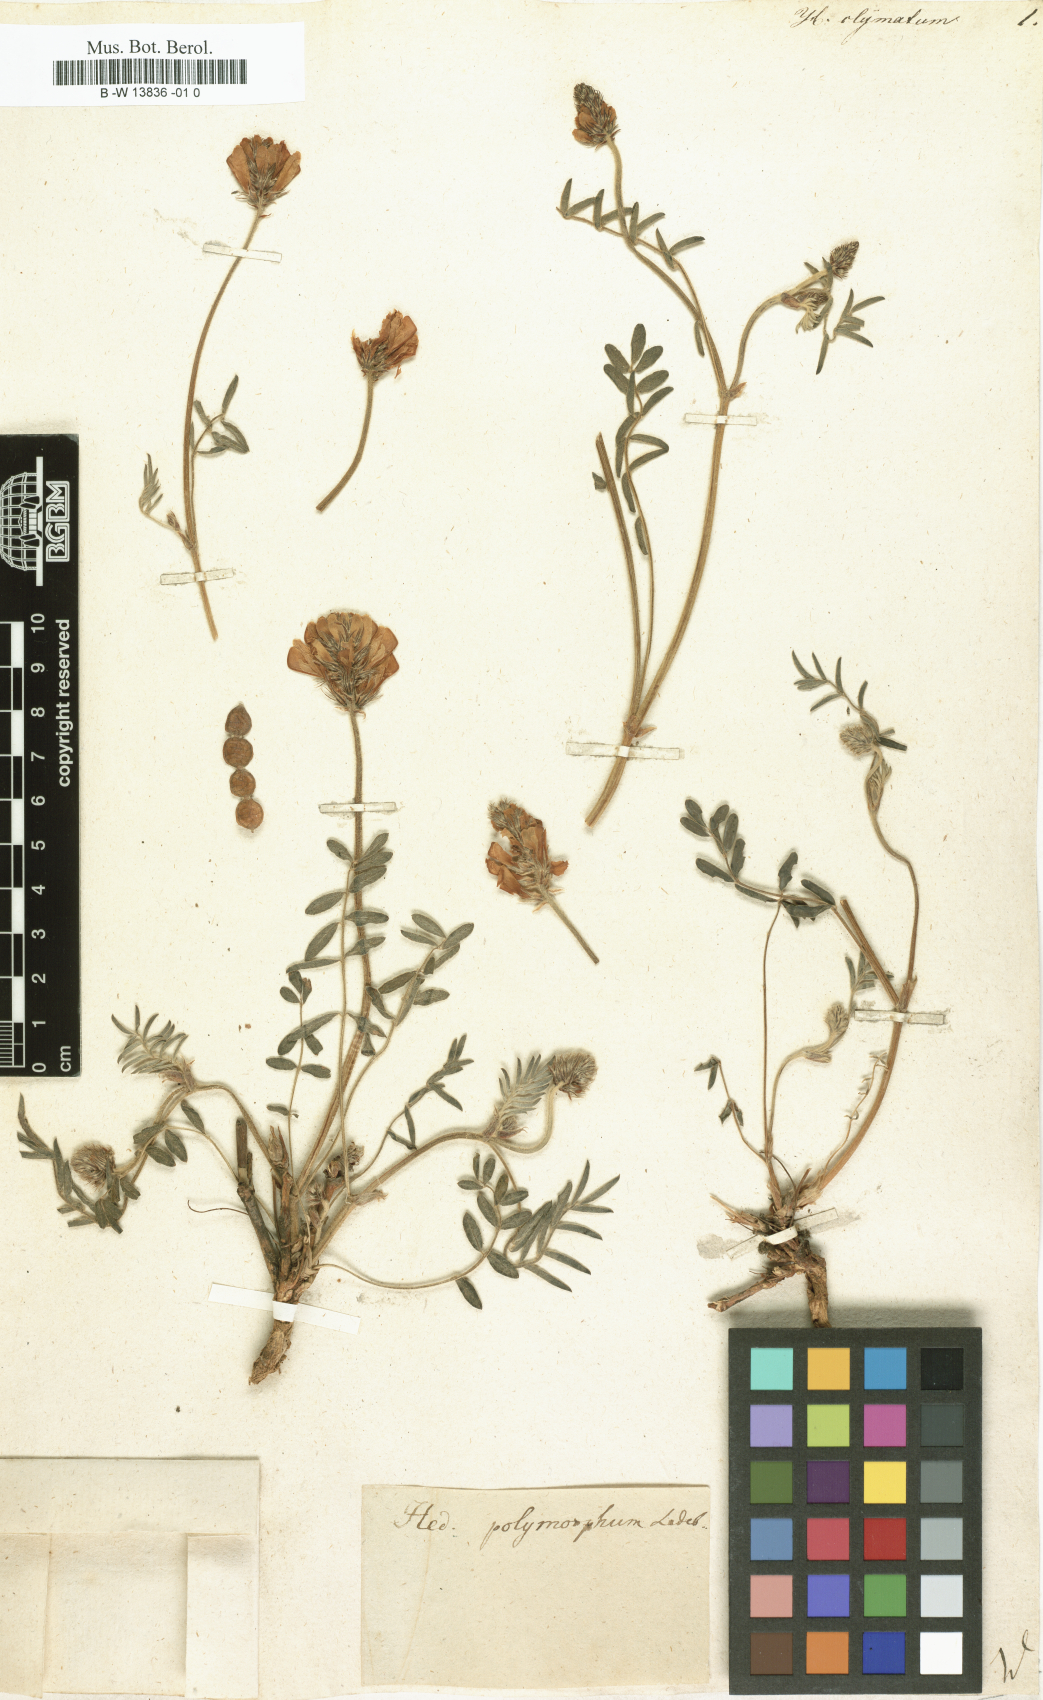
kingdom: Plantae
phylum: Tracheophyta
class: Magnoliopsida
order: Fabales
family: Fabaceae
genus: Hedysarum
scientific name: Hedysarum
